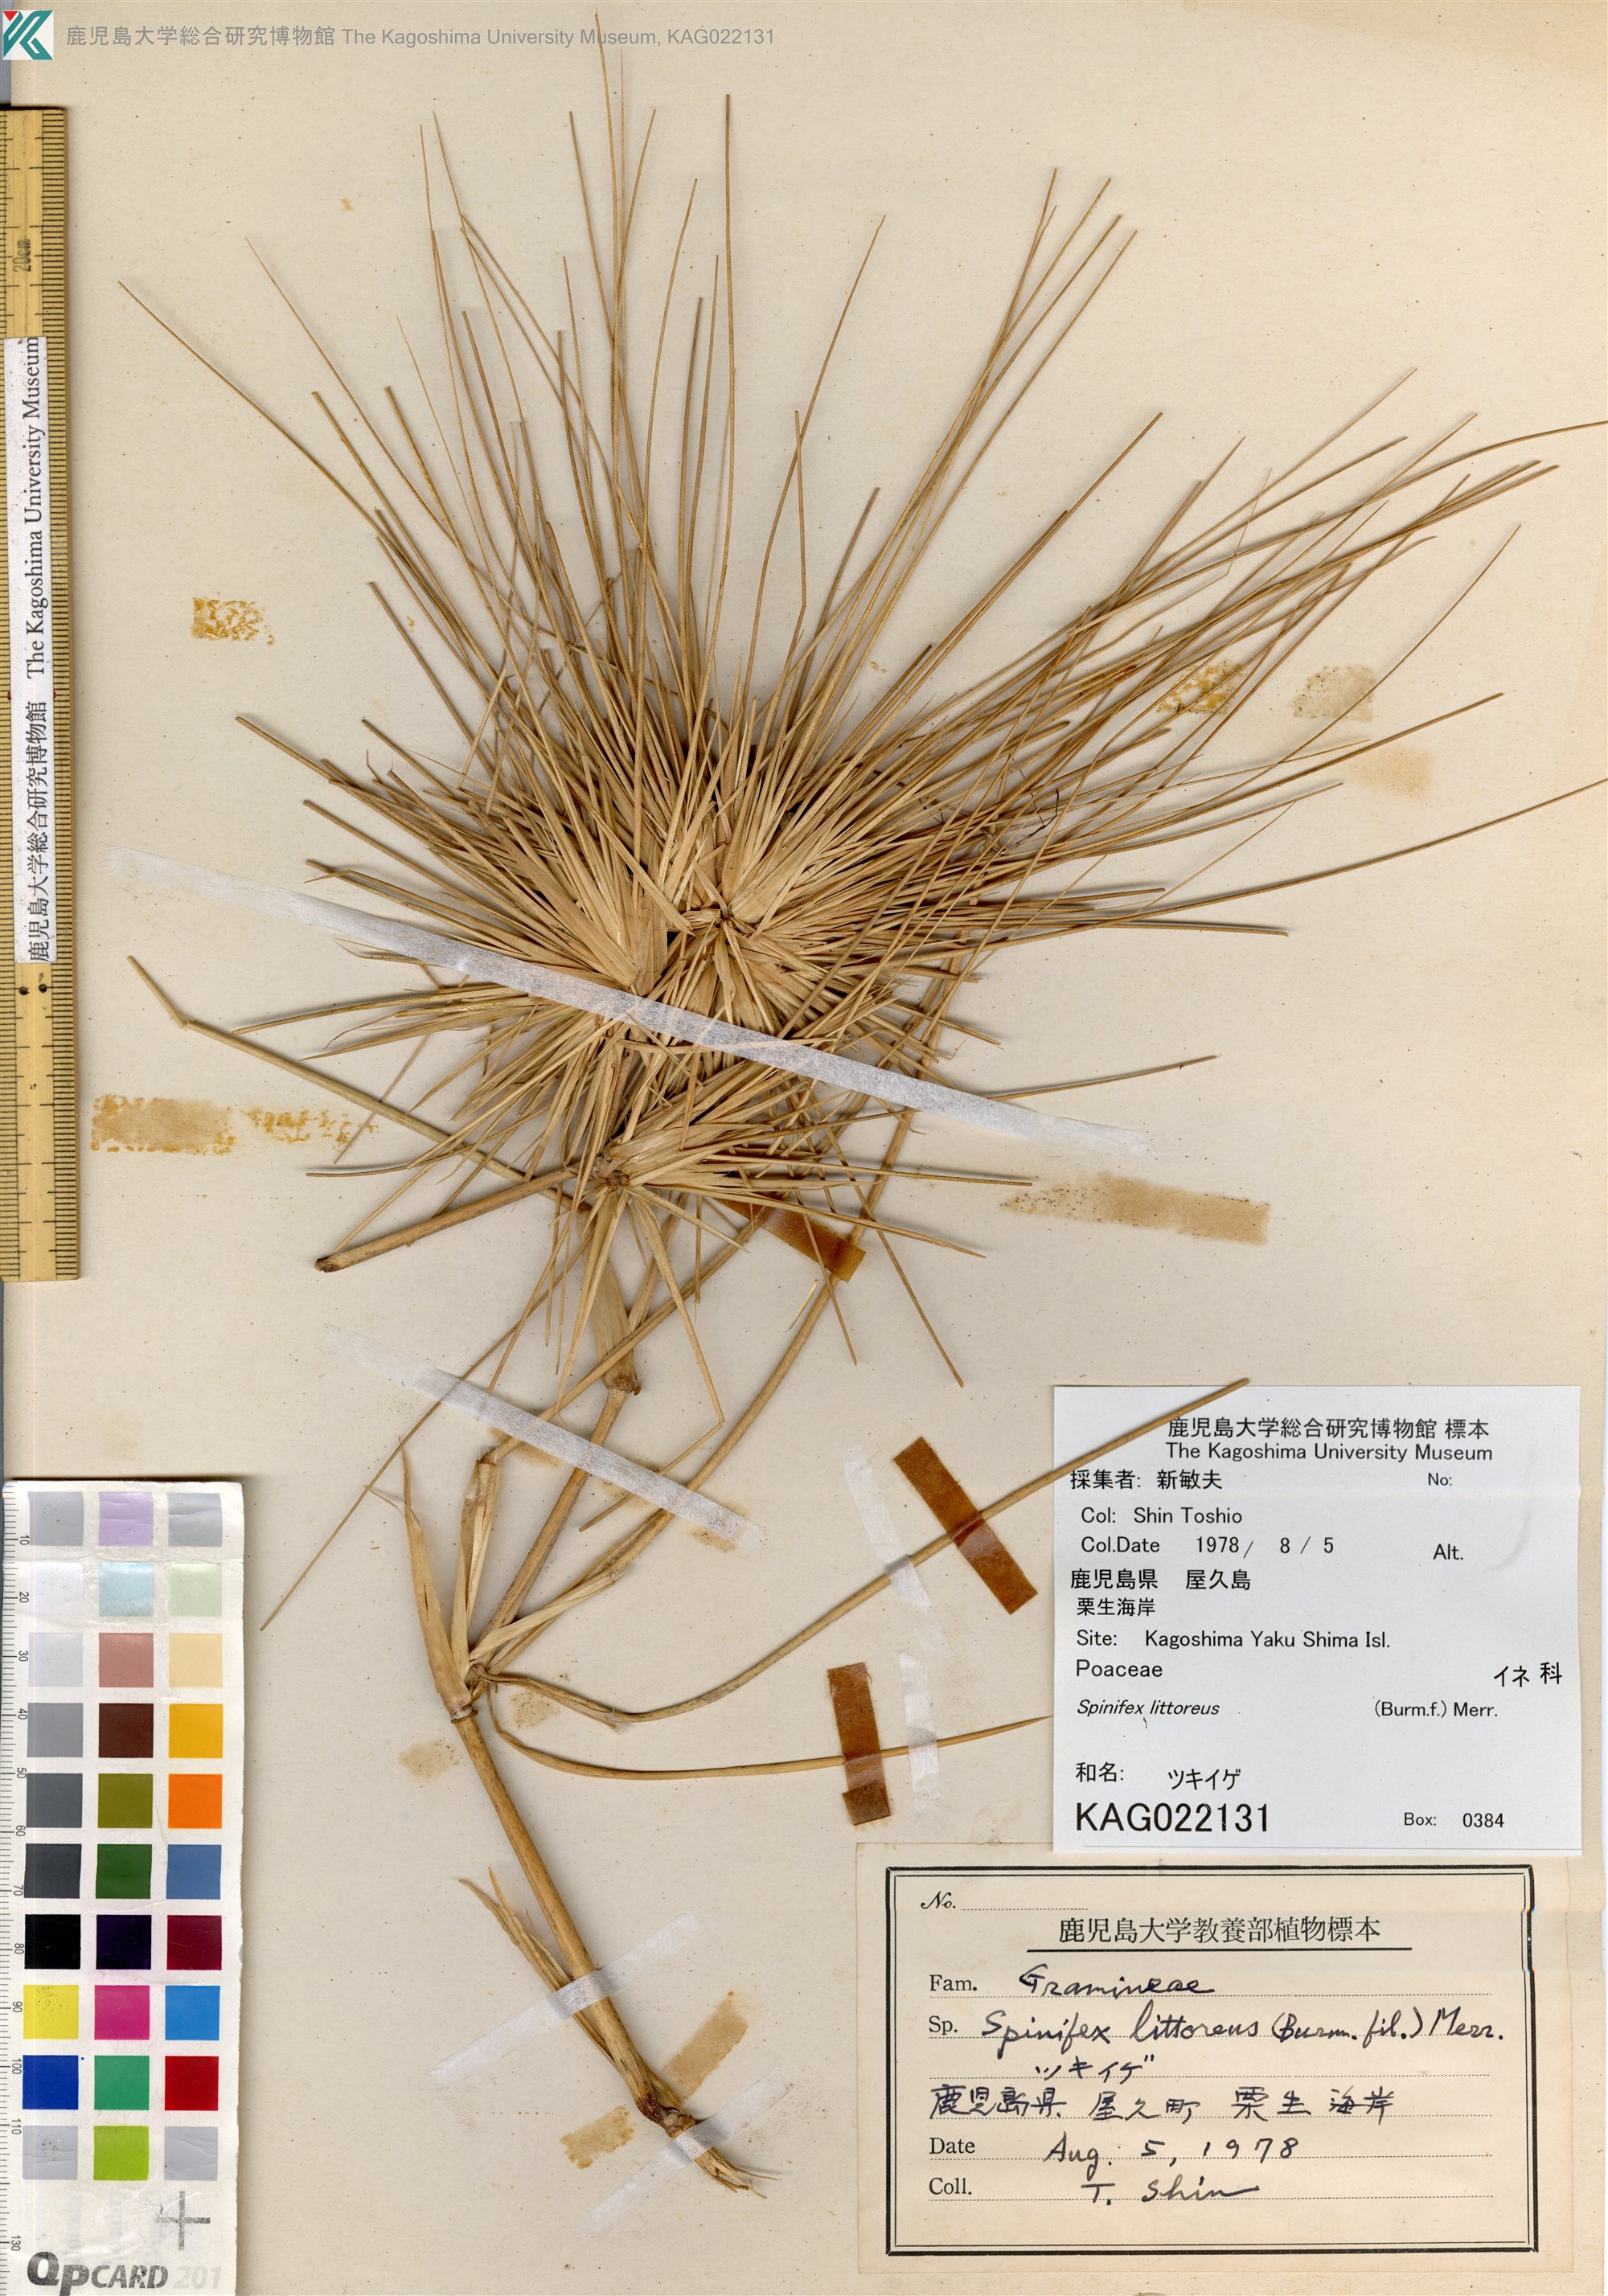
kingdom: Plantae
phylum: Tracheophyta
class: Liliopsida
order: Poales
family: Poaceae
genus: Spinifex
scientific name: Spinifex littoreus
